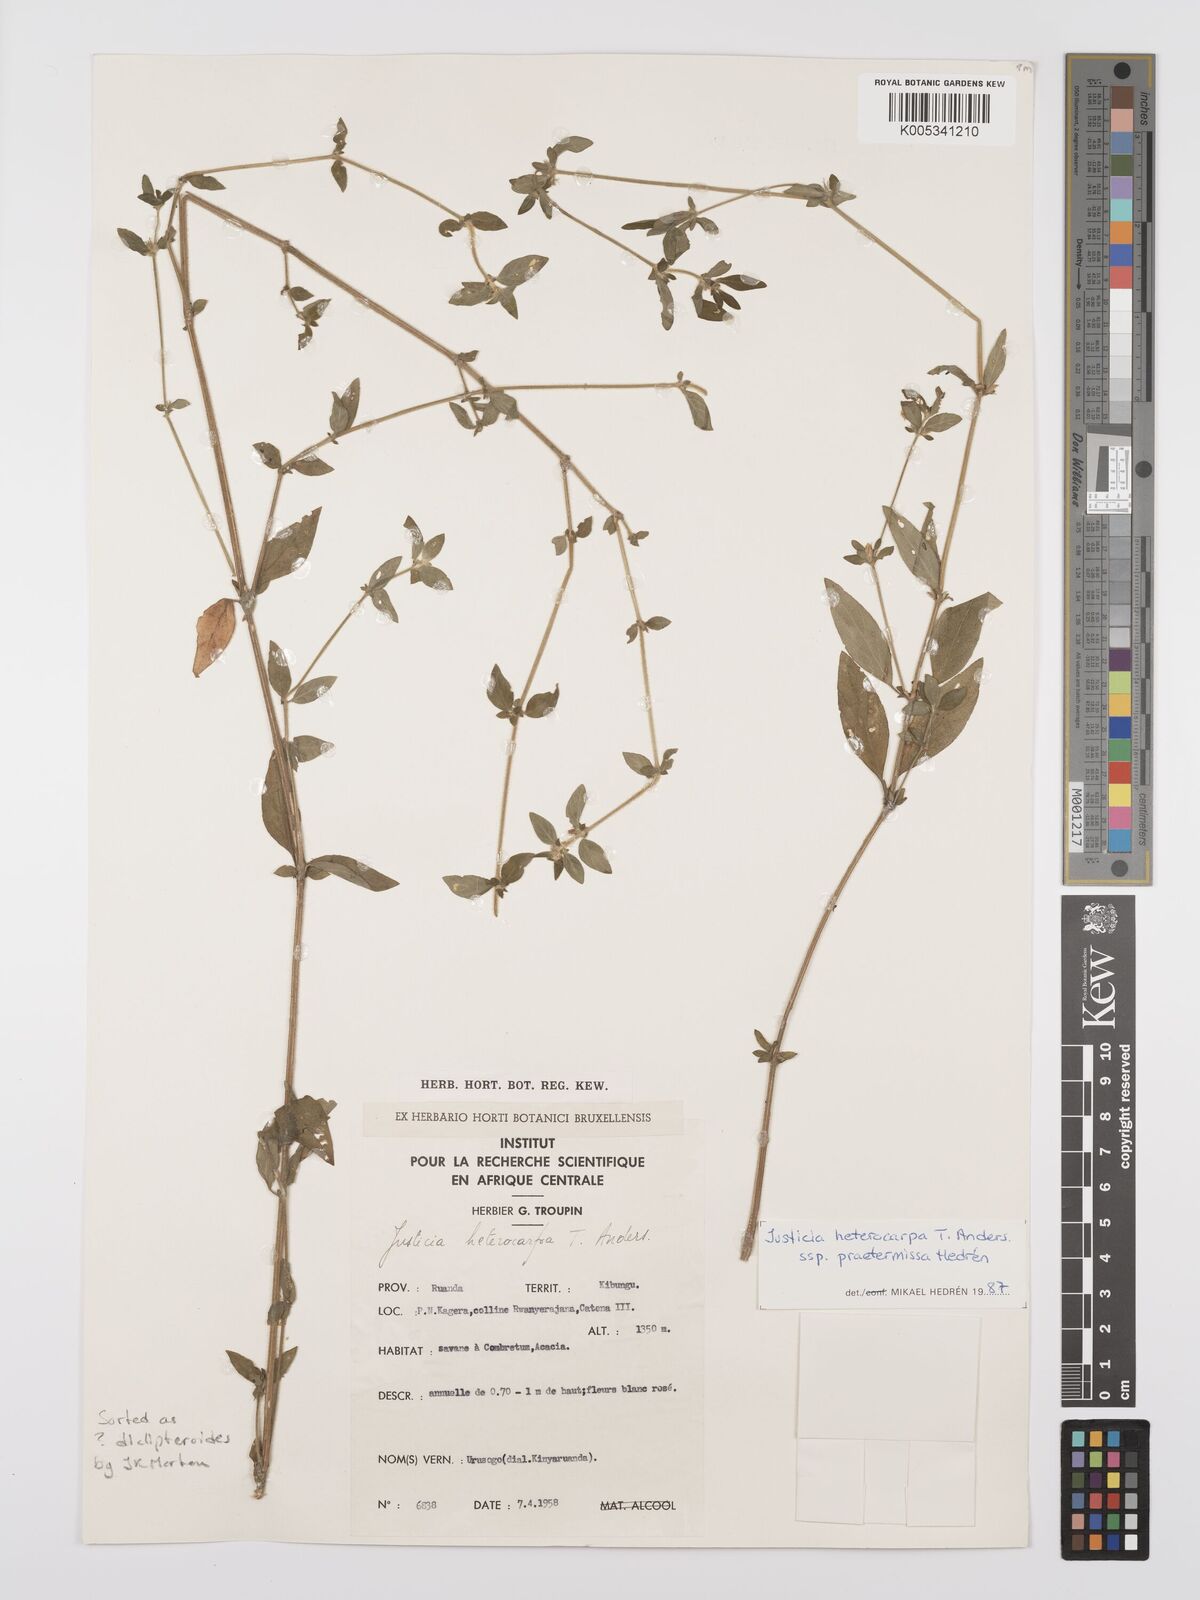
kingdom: Plantae
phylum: Tracheophyta
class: Magnoliopsida
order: Lamiales
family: Acanthaceae
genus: Justicia
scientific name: Justicia heterocarpa
